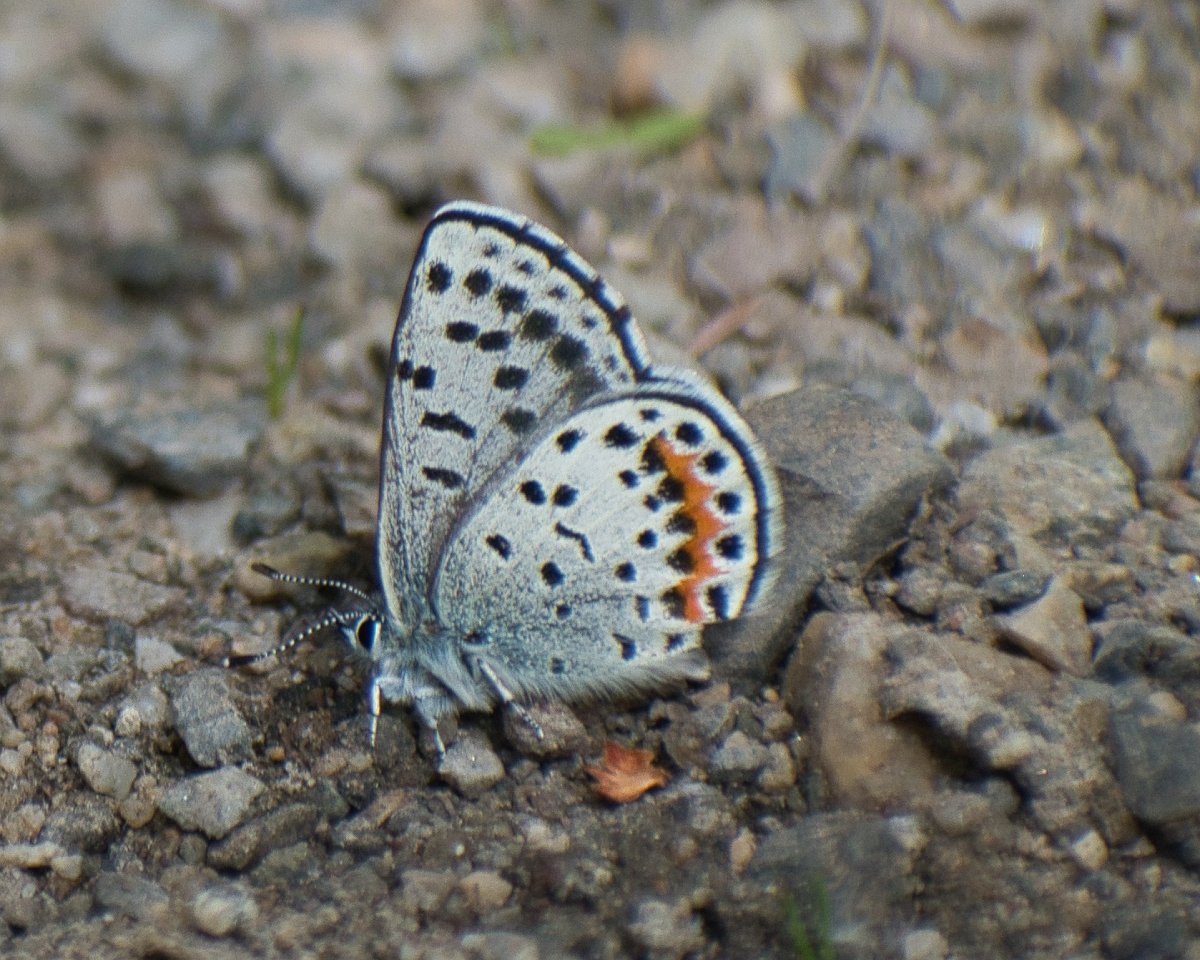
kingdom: Animalia
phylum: Arthropoda
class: Insecta
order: Lepidoptera
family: Lycaenidae
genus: Euphilotes
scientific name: Euphilotes battoides
